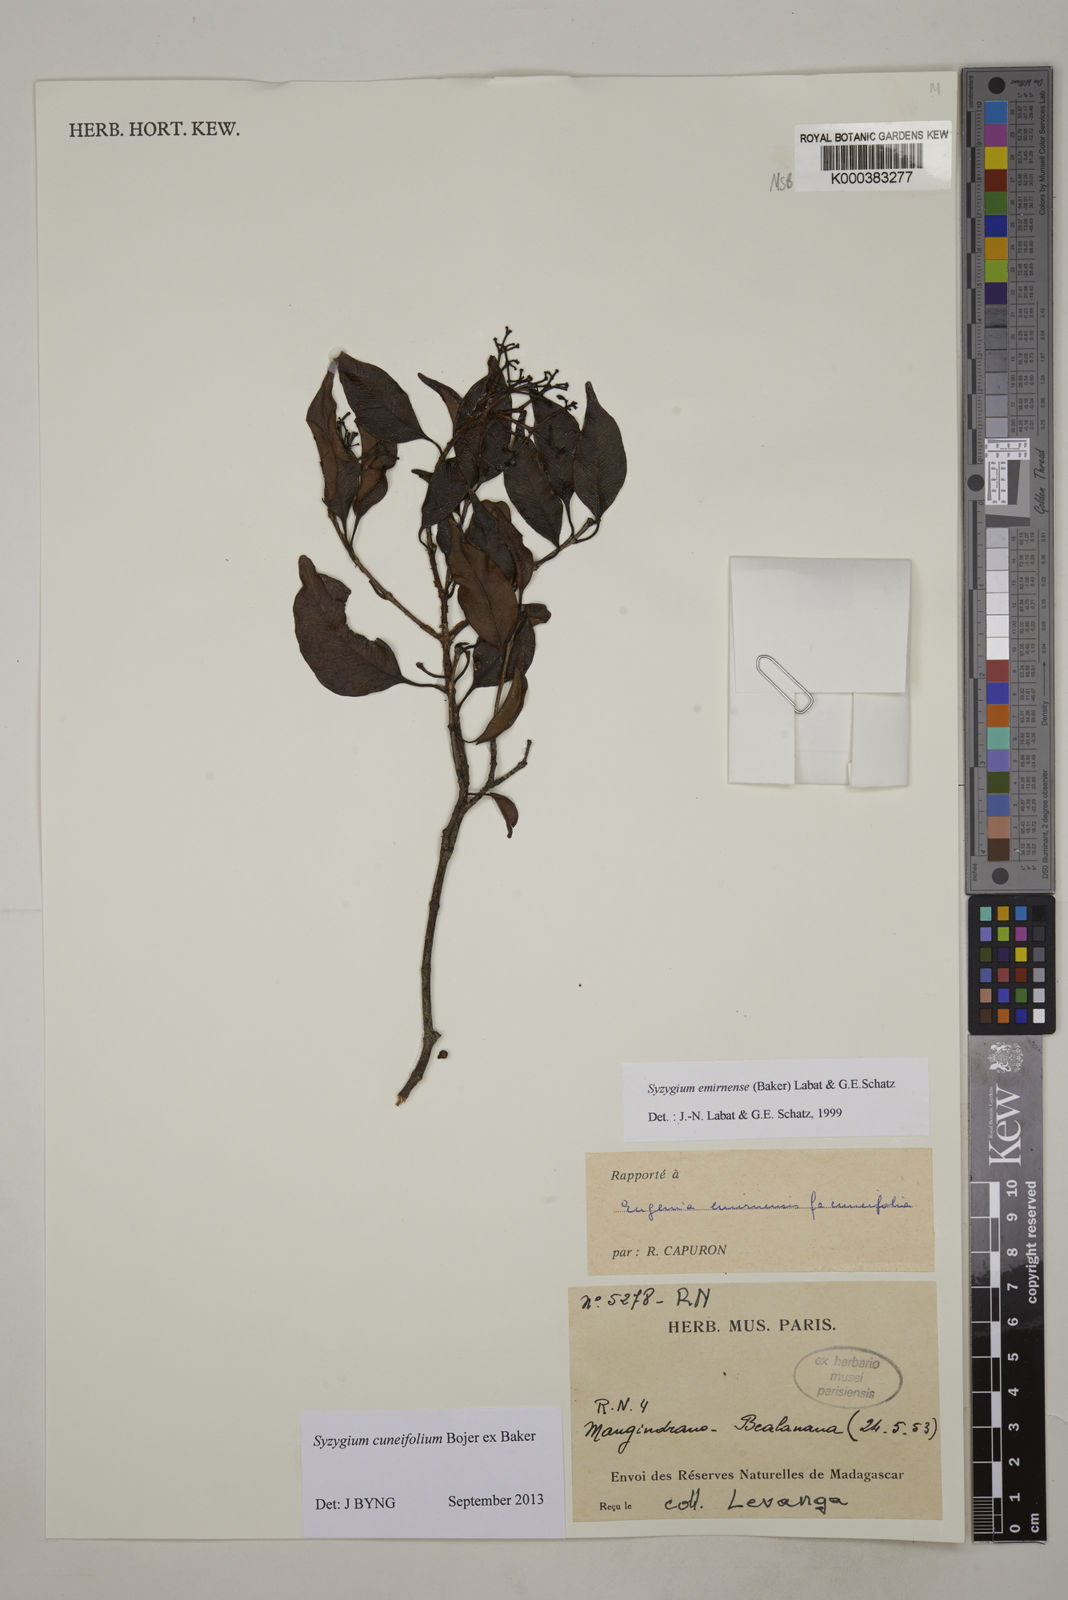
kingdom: Plantae
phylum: Tracheophyta
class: Magnoliopsida
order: Myrtales
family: Myrtaceae
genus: Syzygium
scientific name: Syzygium emirnense
